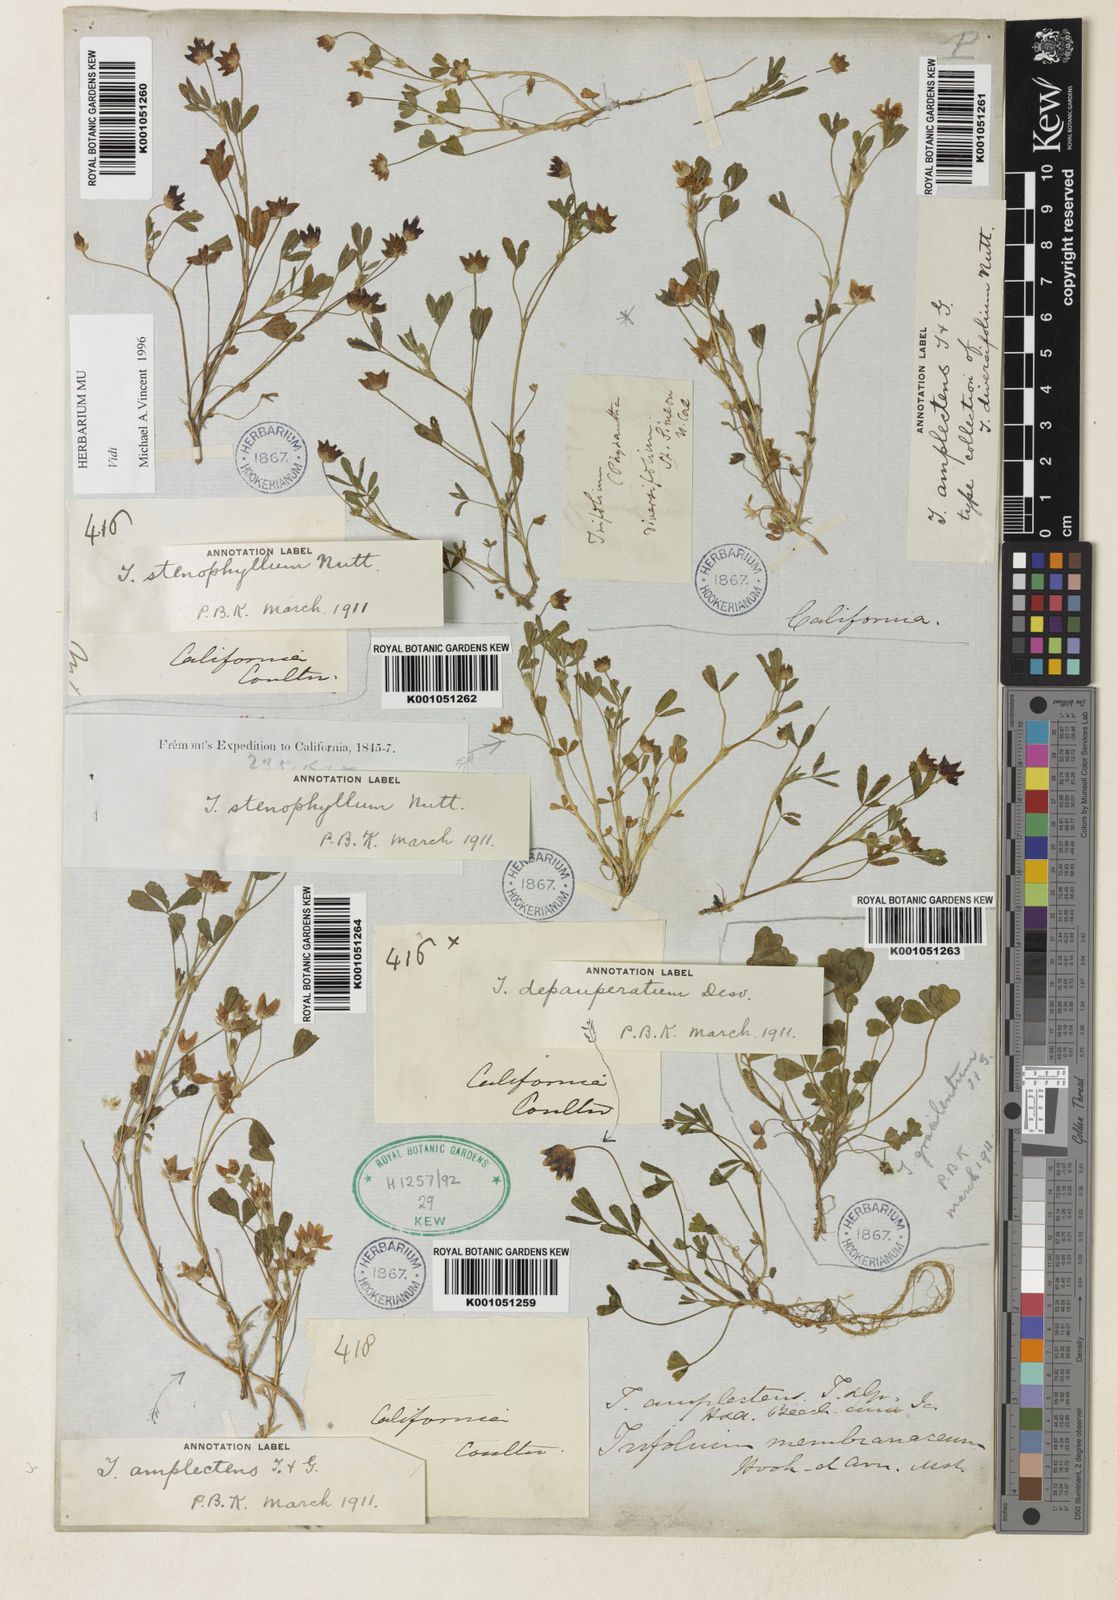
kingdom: Plantae
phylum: Tracheophyta
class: Magnoliopsida
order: Fabales
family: Fabaceae
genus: Trifolium
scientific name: Trifolium depauperatum
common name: Poverty clover
